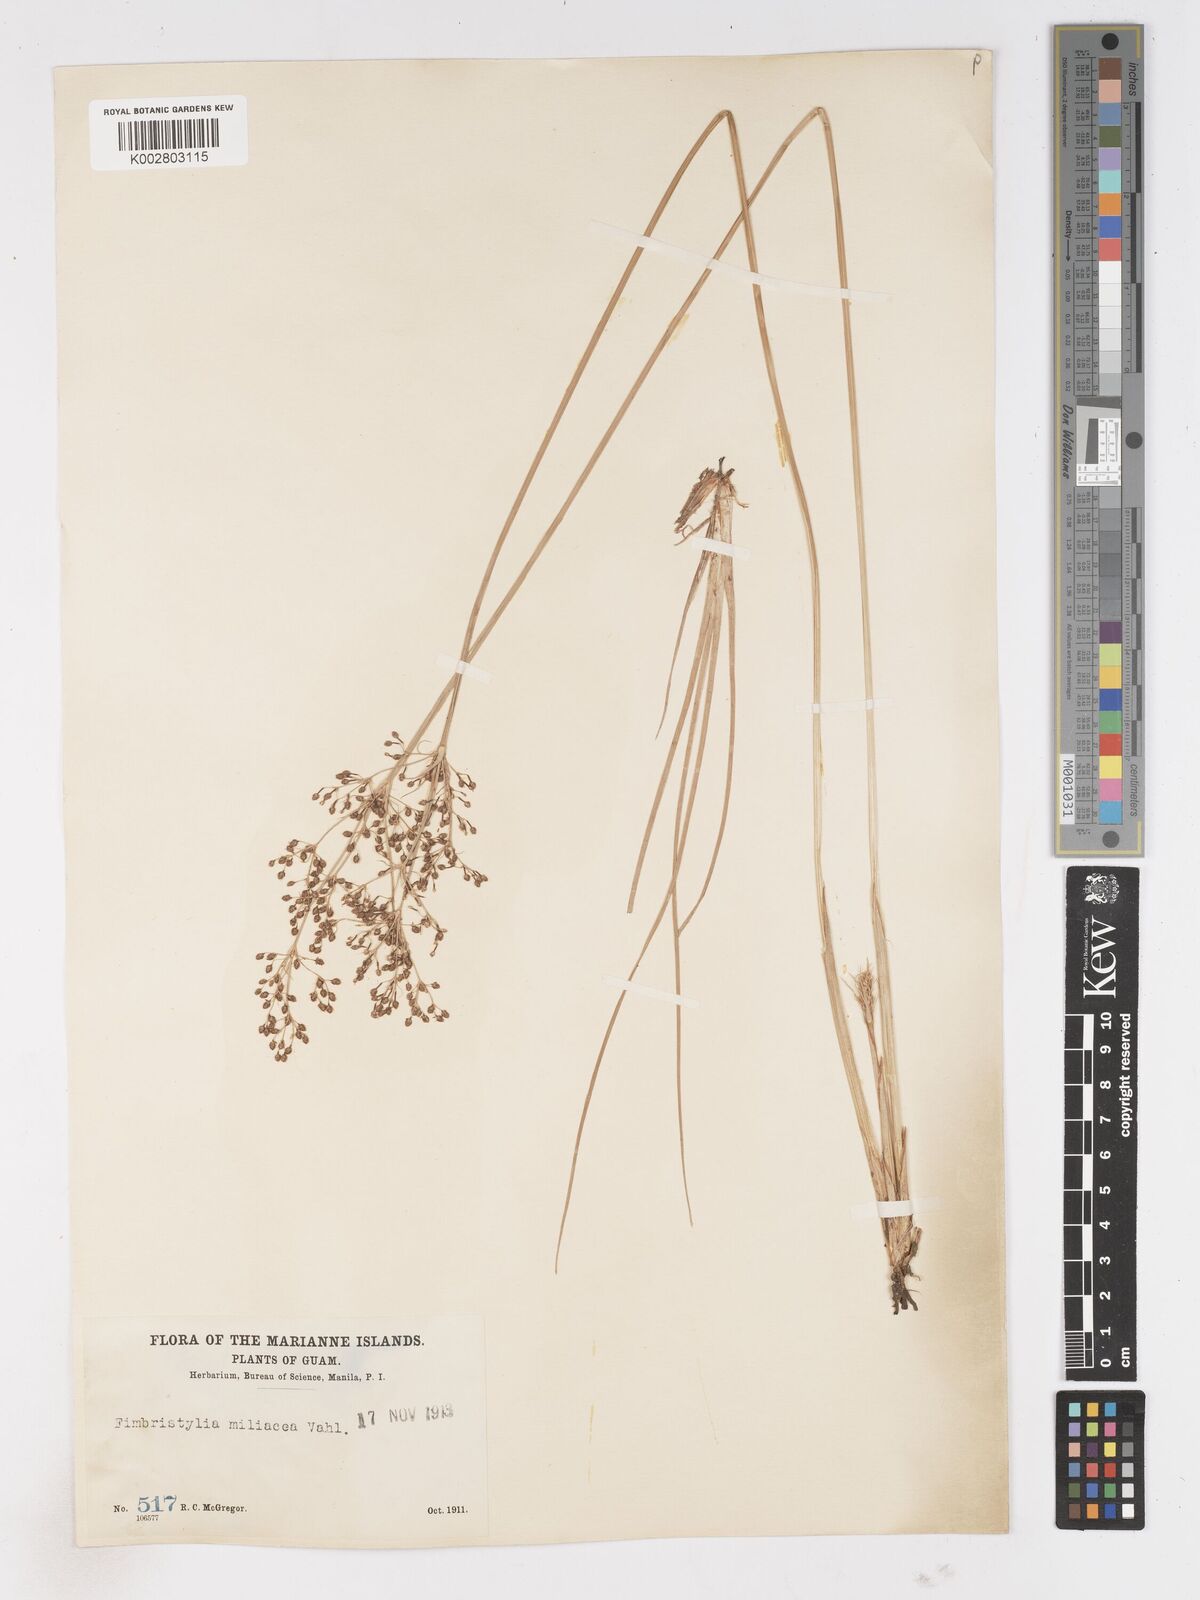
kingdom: Plantae
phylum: Tracheophyta
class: Liliopsida
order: Poales
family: Cyperaceae
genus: Fimbristylis
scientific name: Fimbristylis littoralis
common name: Fimbry
